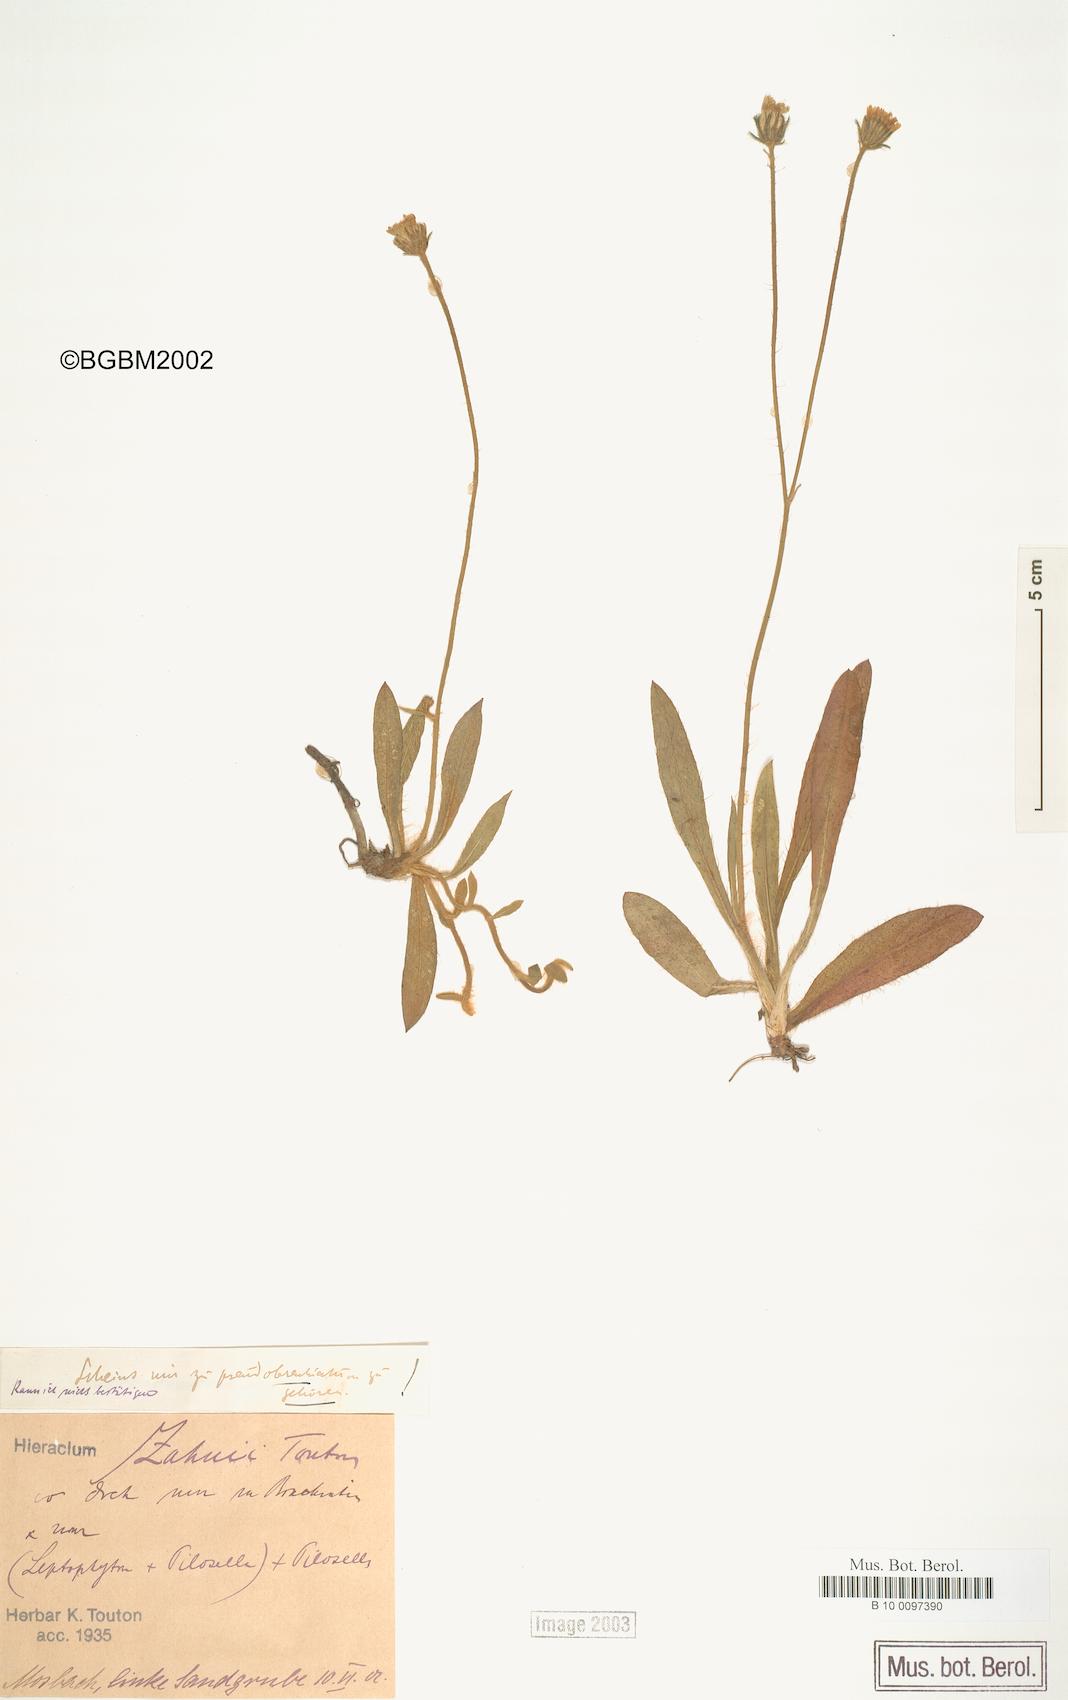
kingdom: Plantae
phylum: Tracheophyta
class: Magnoliopsida
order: Asterales
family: Asteraceae
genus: Pilosella
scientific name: Pilosella heterodoxiformis
